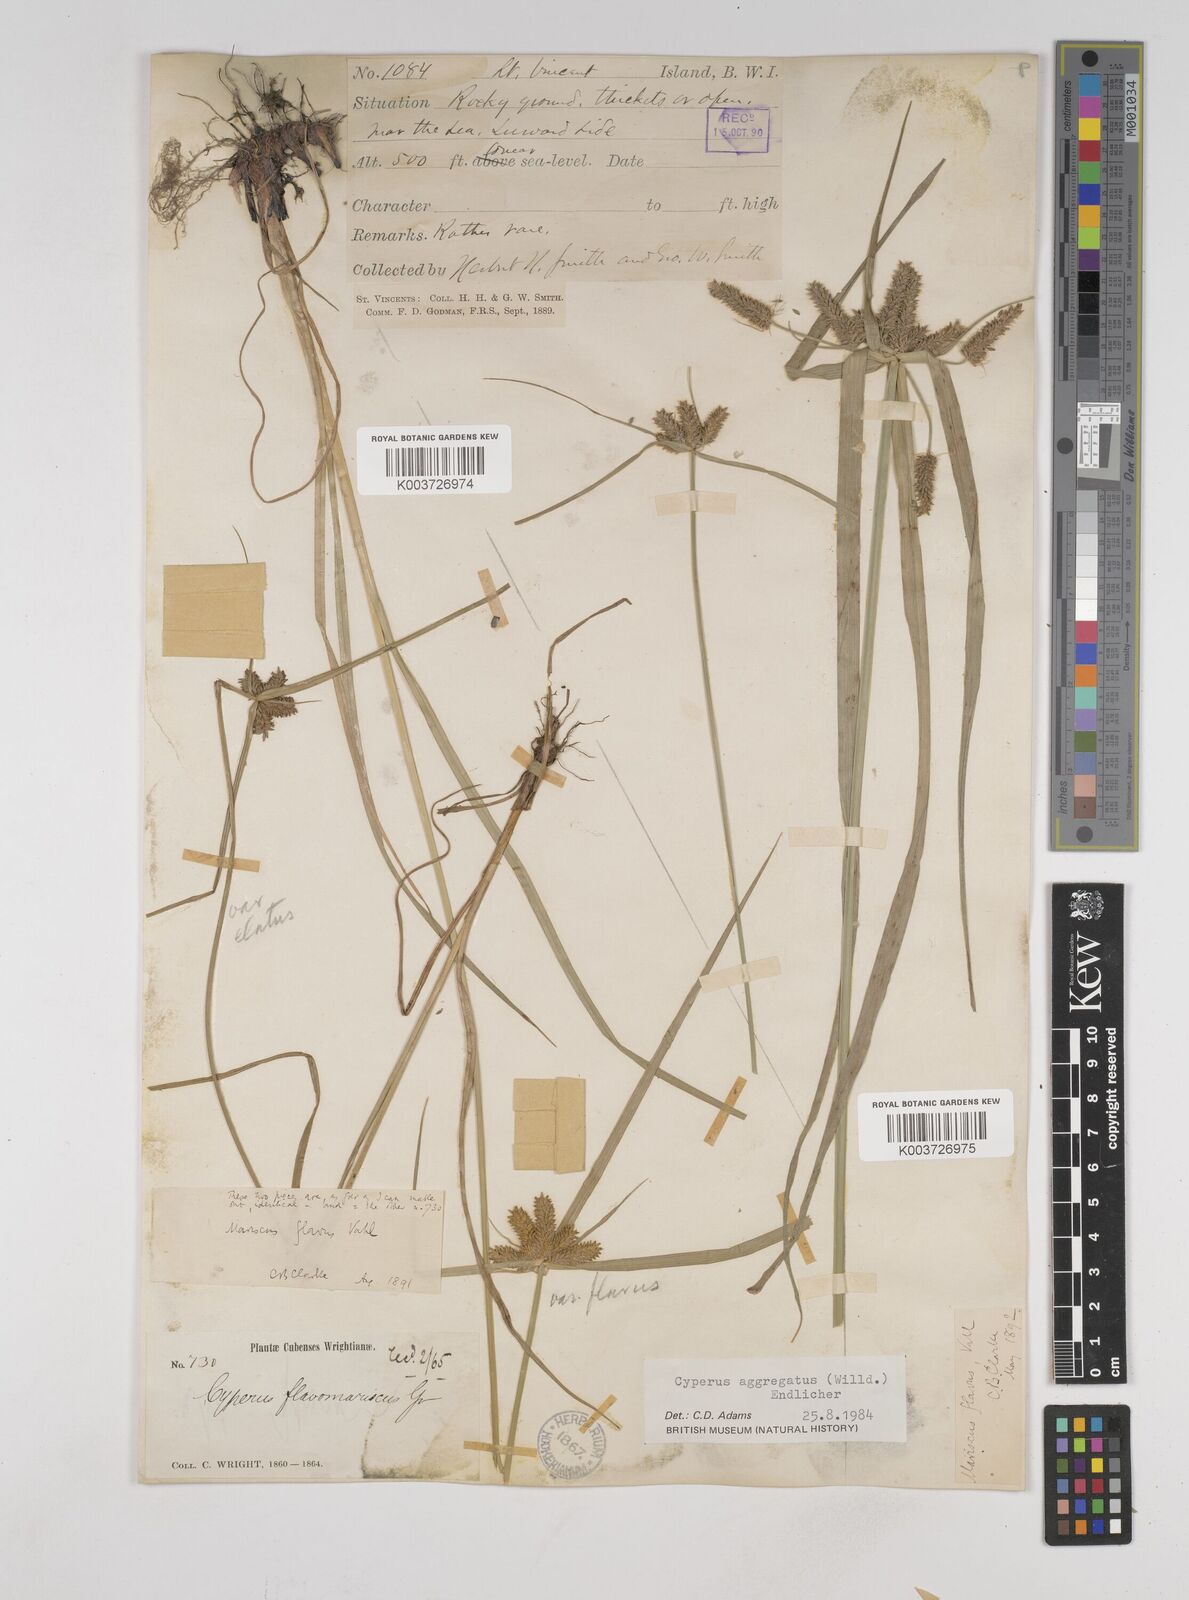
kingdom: Plantae
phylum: Tracheophyta
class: Liliopsida
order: Poales
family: Cyperaceae
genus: Cyperus
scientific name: Cyperus aggregatus
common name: Inflatedscale flatsedge
